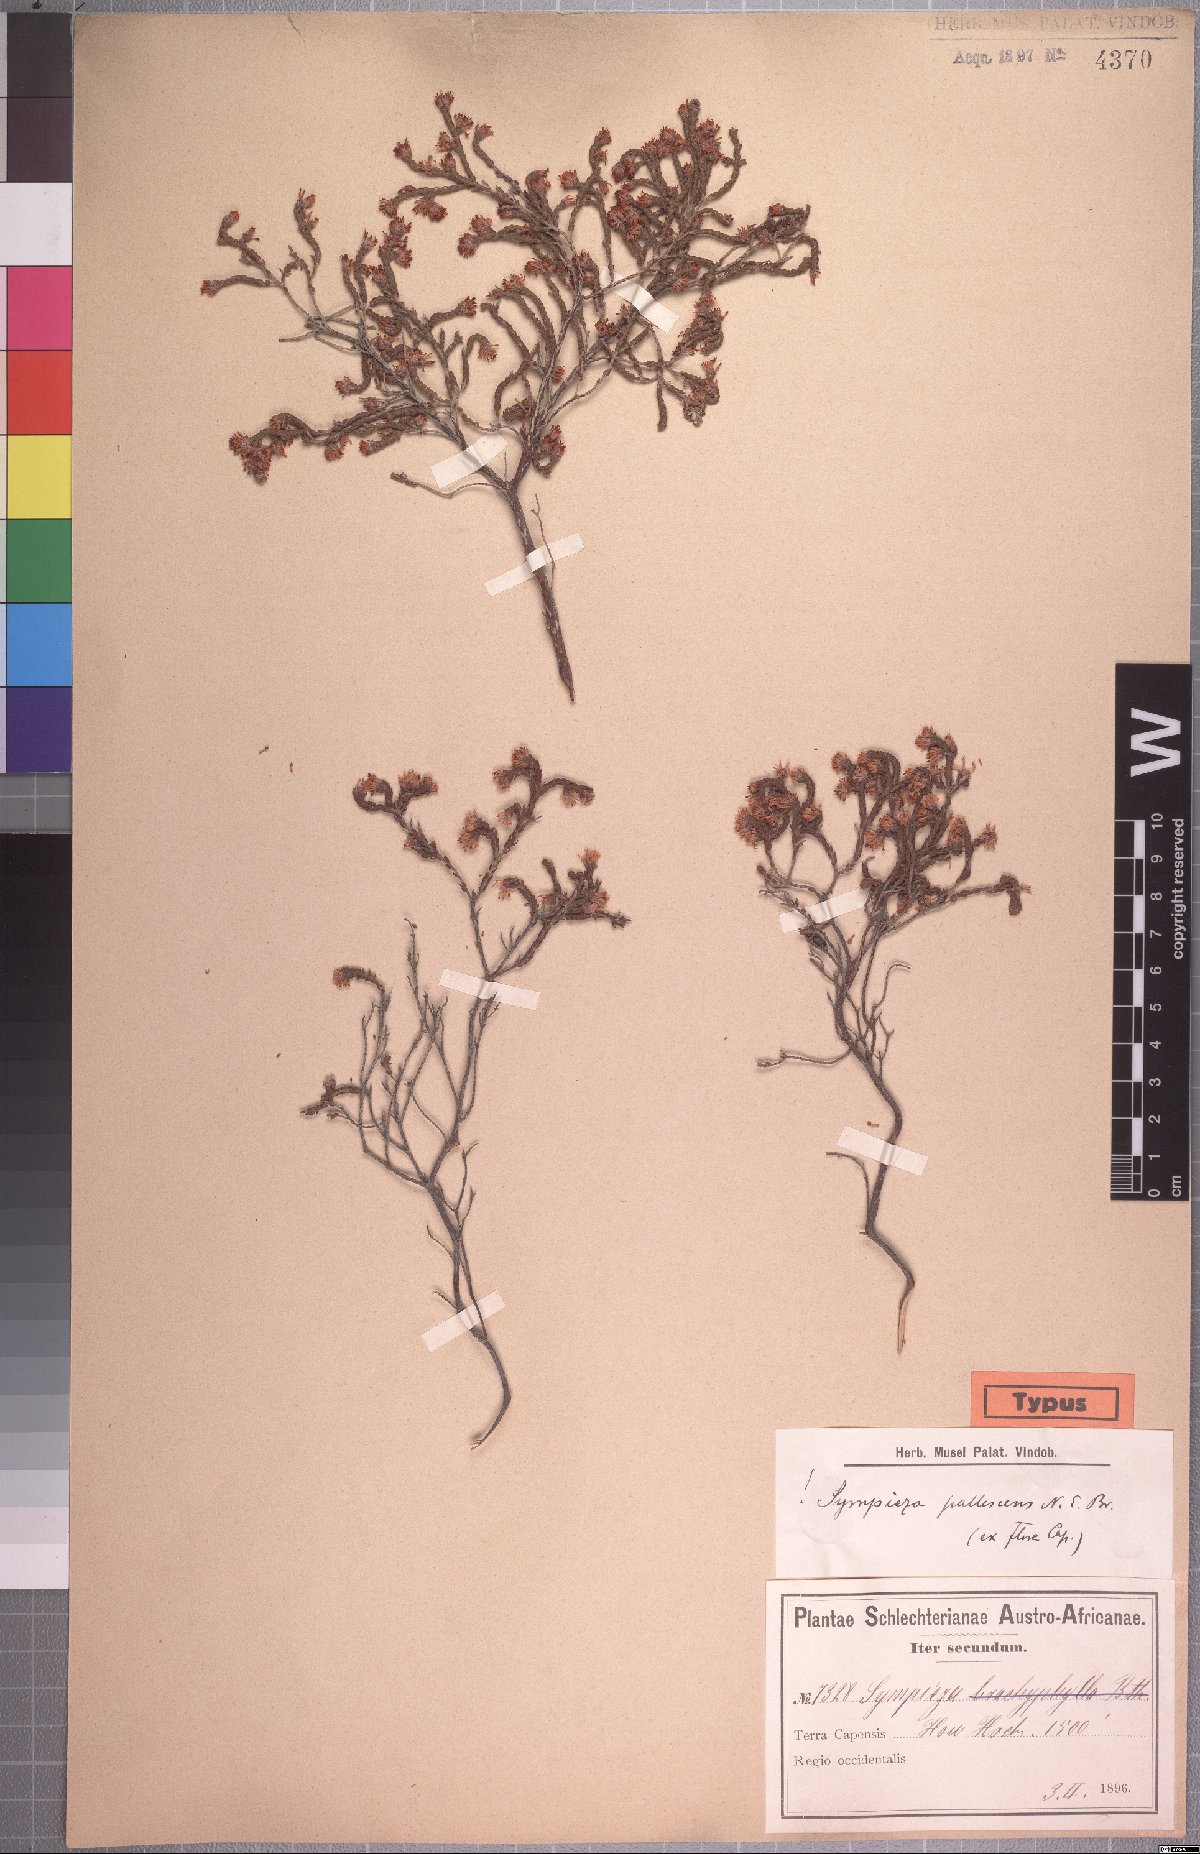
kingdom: Plantae
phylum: Tracheophyta
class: Magnoliopsida
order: Ericales
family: Ericaceae
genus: Erica
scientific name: Erica labialis
